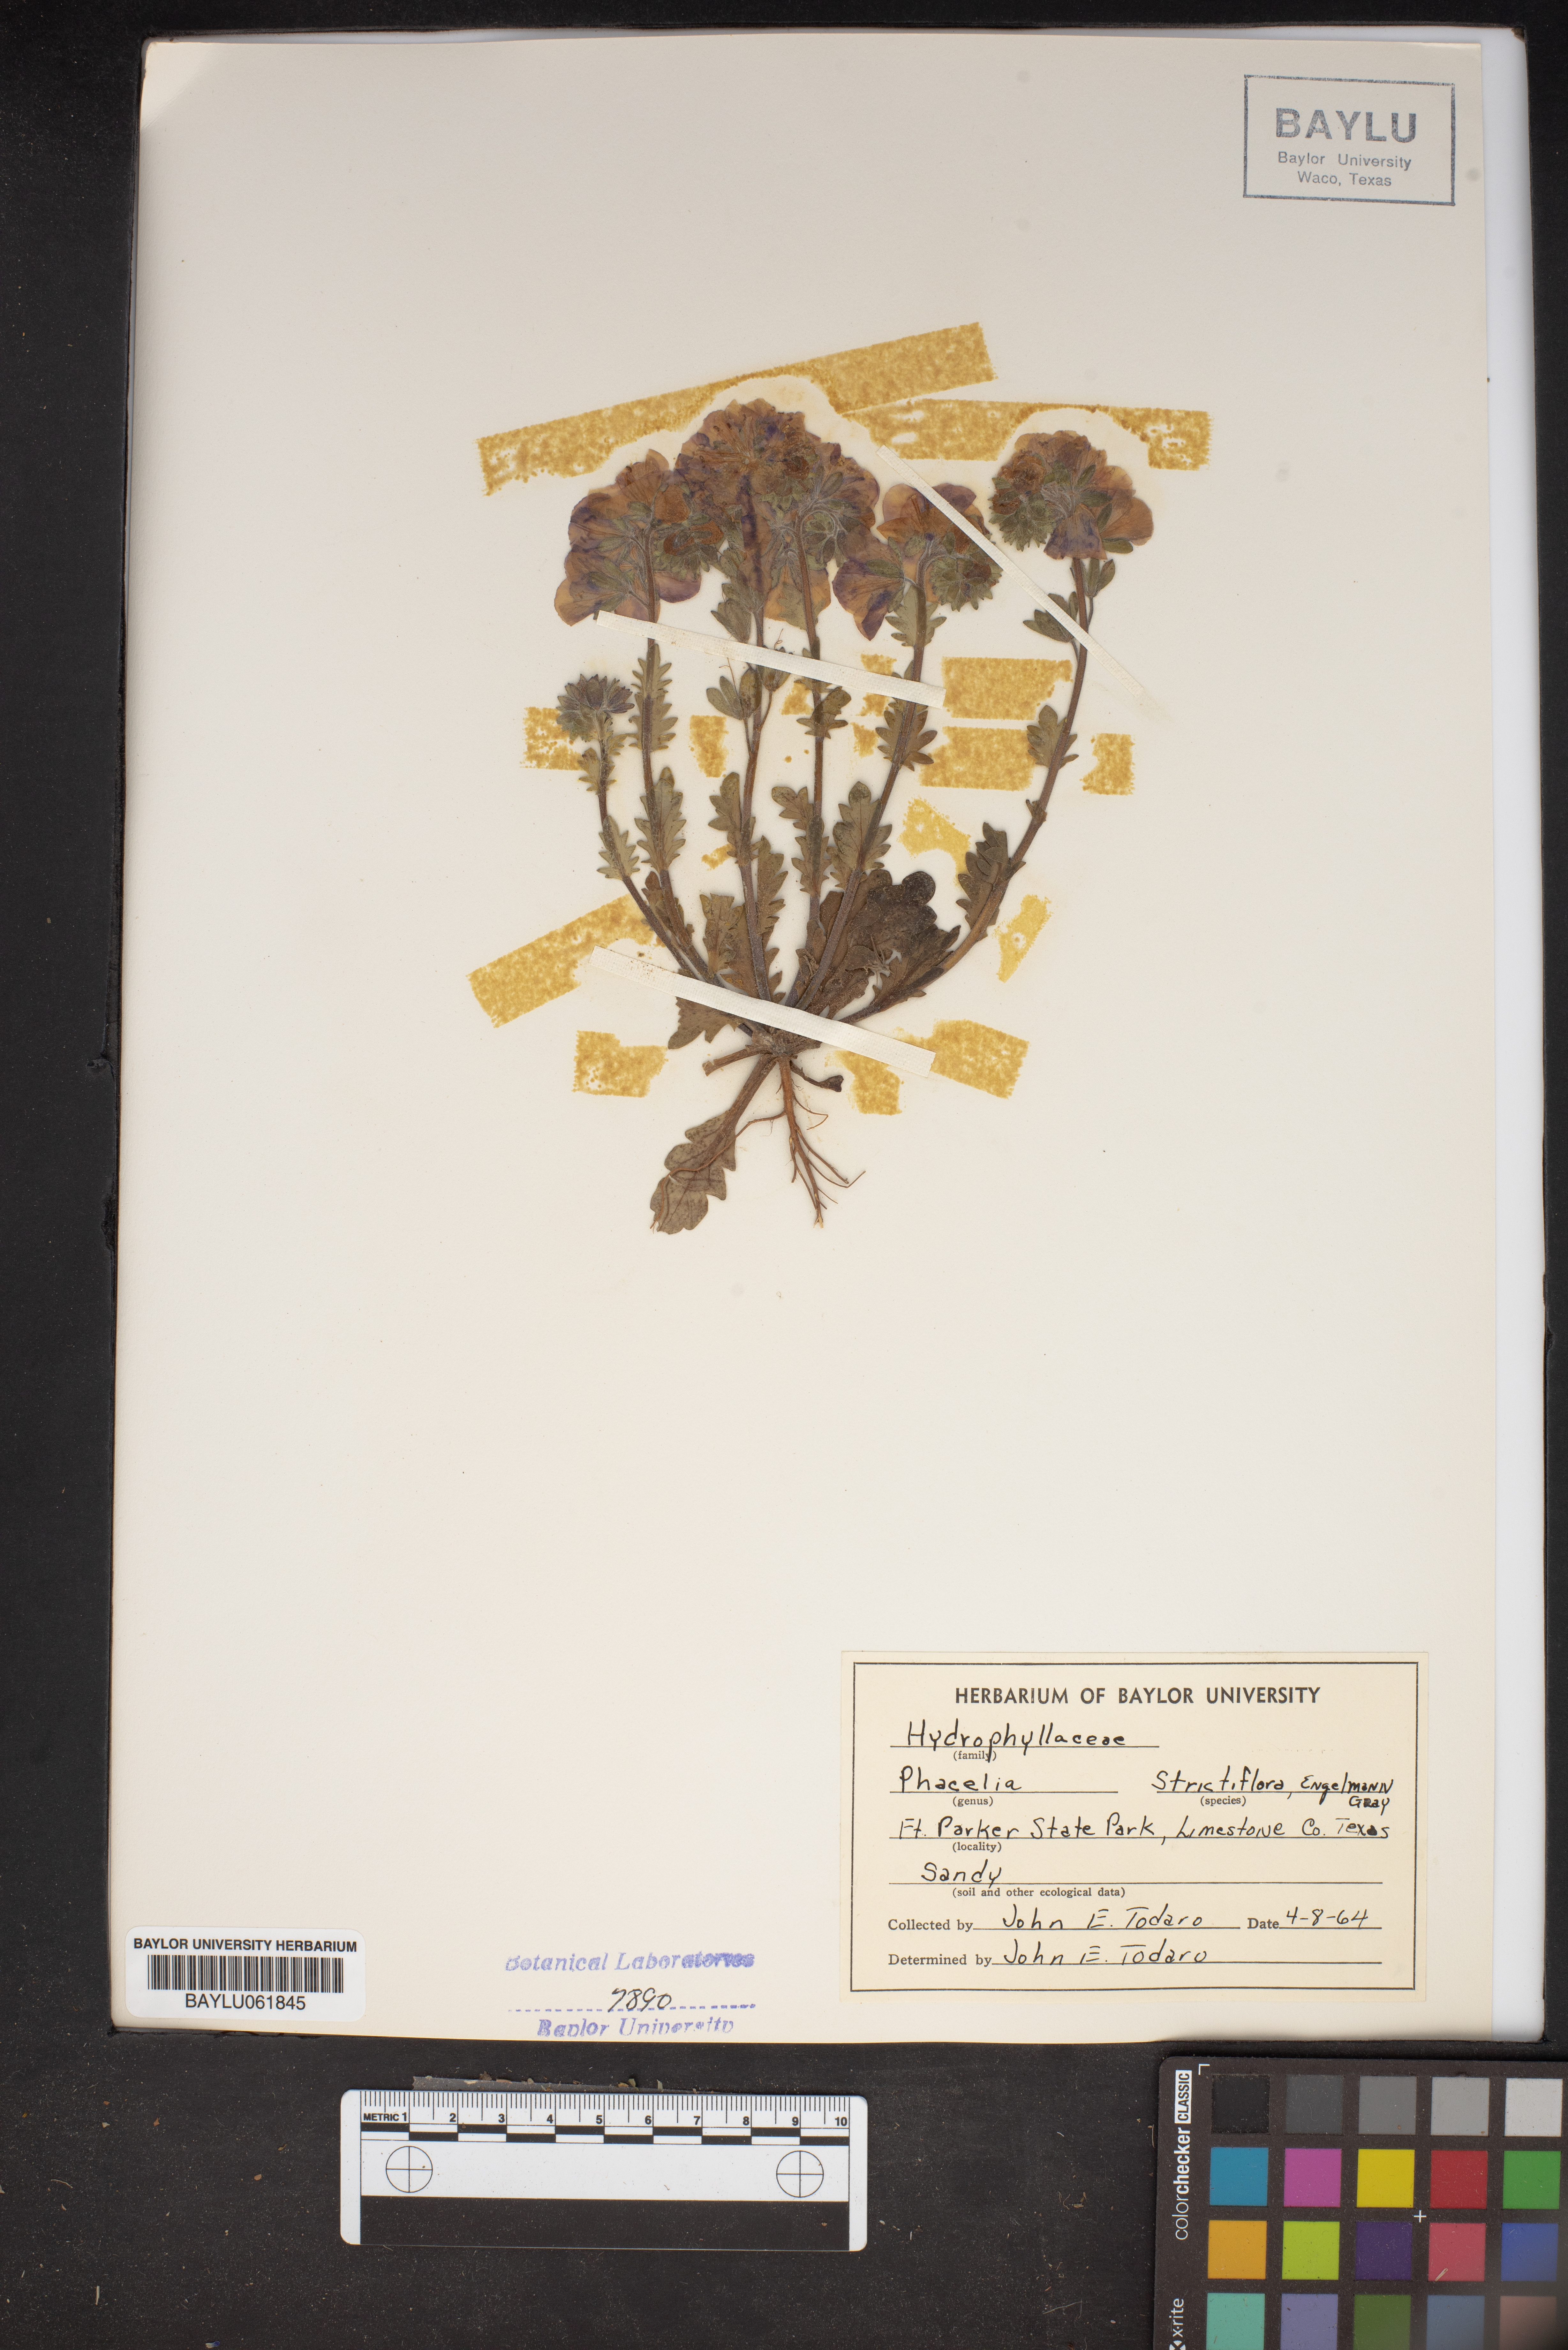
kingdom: Plantae
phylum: Tracheophyta
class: Magnoliopsida
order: Boraginales
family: Hydrophyllaceae
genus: Phacelia
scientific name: Phacelia strictiflora
